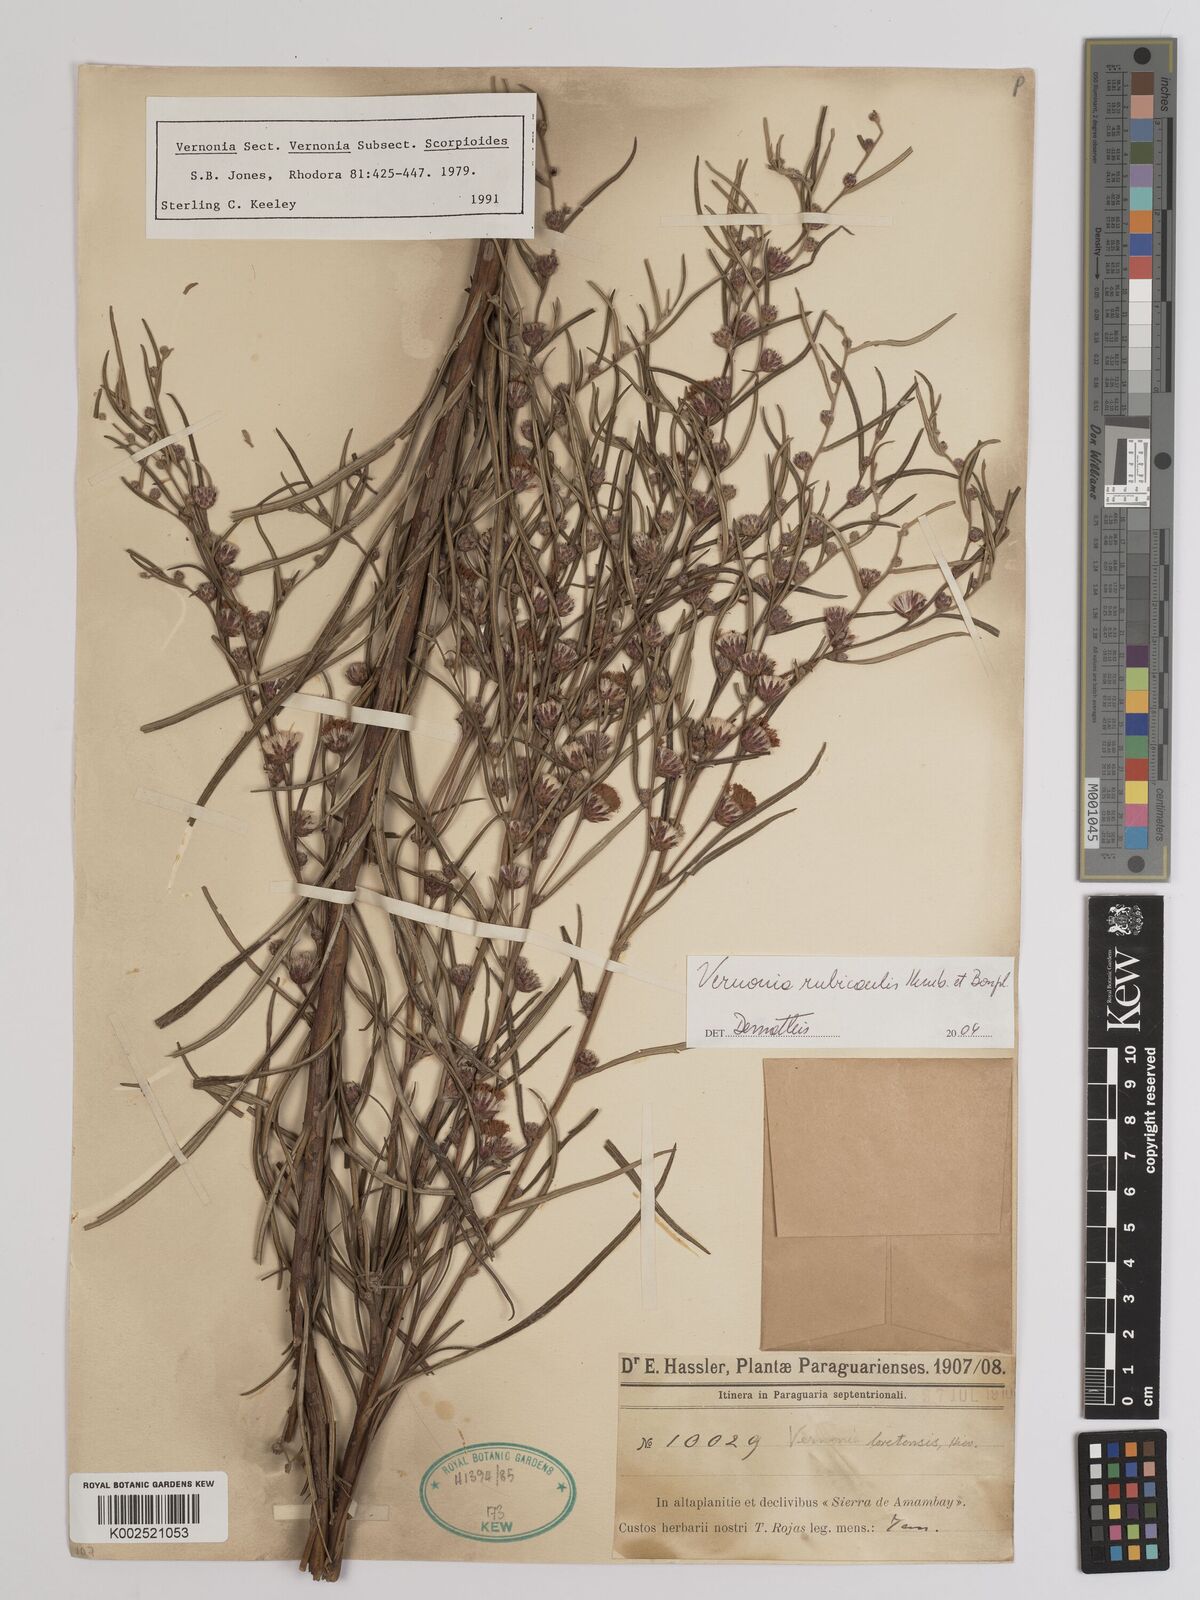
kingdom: Plantae
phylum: Tracheophyta
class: Magnoliopsida
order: Asterales
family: Asteraceae
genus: Lessingianthus
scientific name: Lessingianthus rubricaulis
